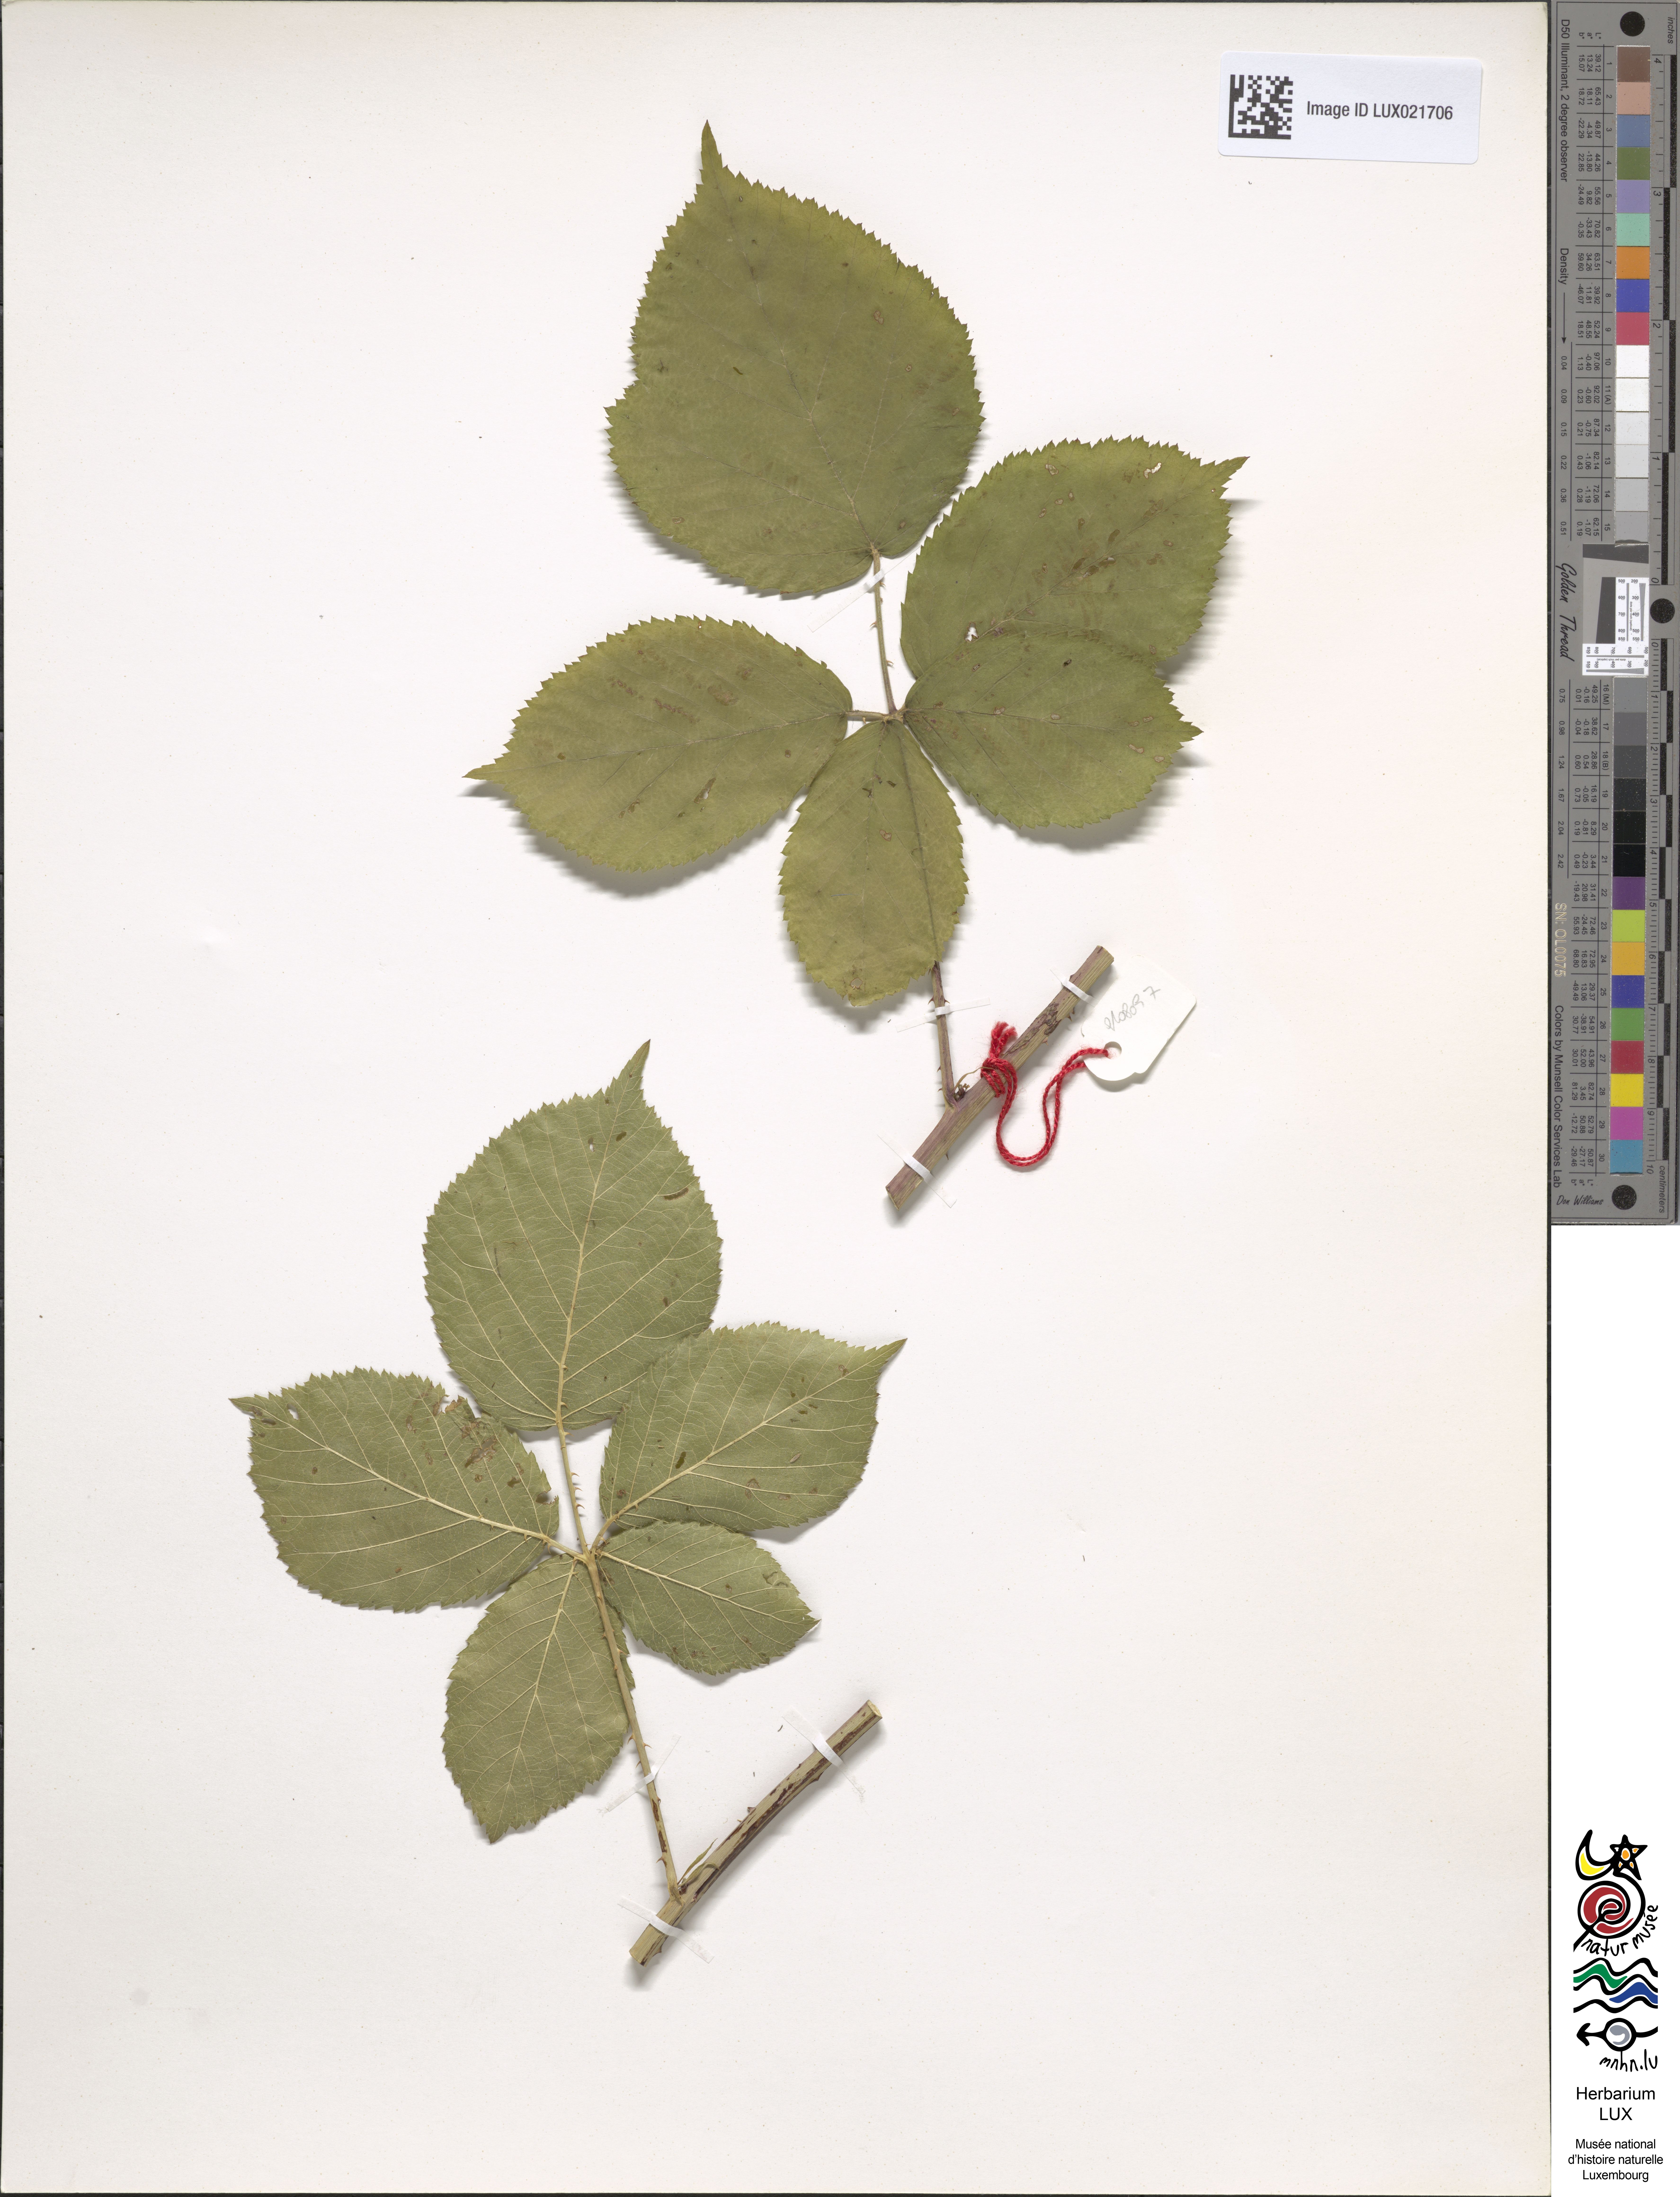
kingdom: Plantae
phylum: Tracheophyta
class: Magnoliopsida
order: Rosales
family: Rosaceae
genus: Rubus
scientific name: Rubus
